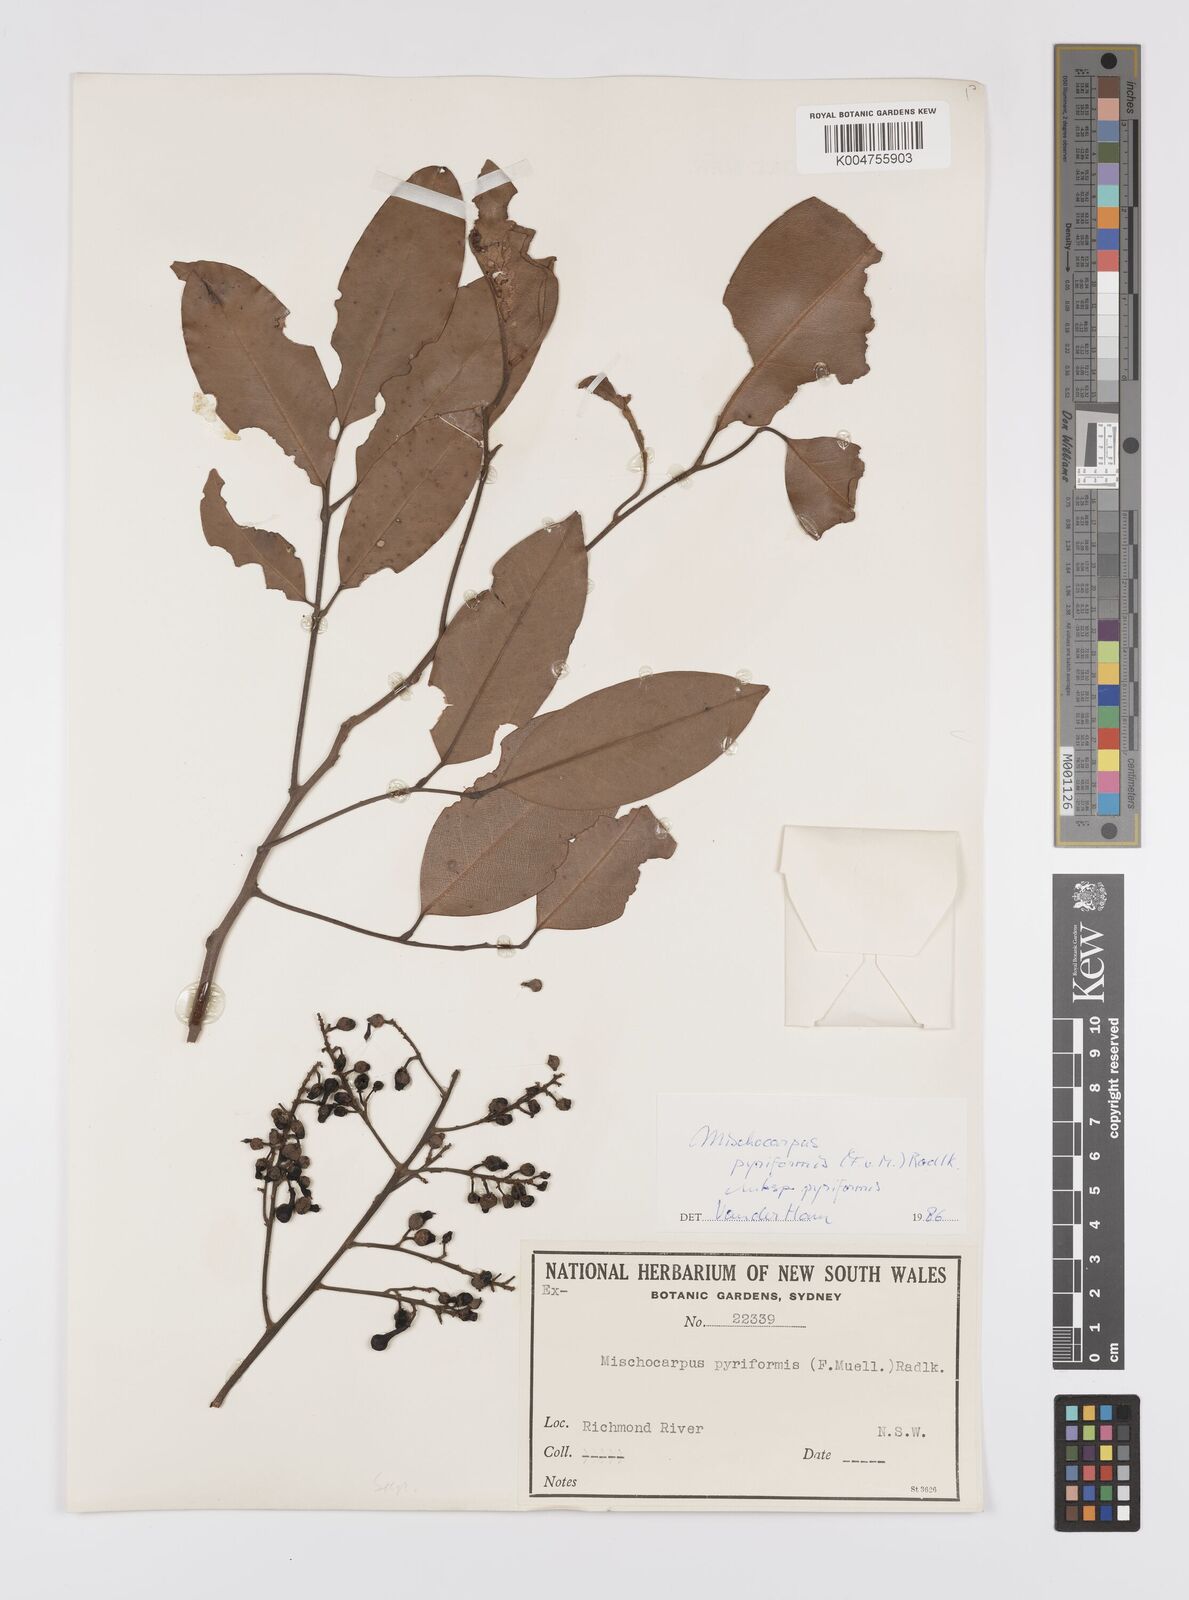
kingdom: Plantae
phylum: Tracheophyta
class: Magnoliopsida
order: Sapindales
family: Sapindaceae
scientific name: Sapindaceae
